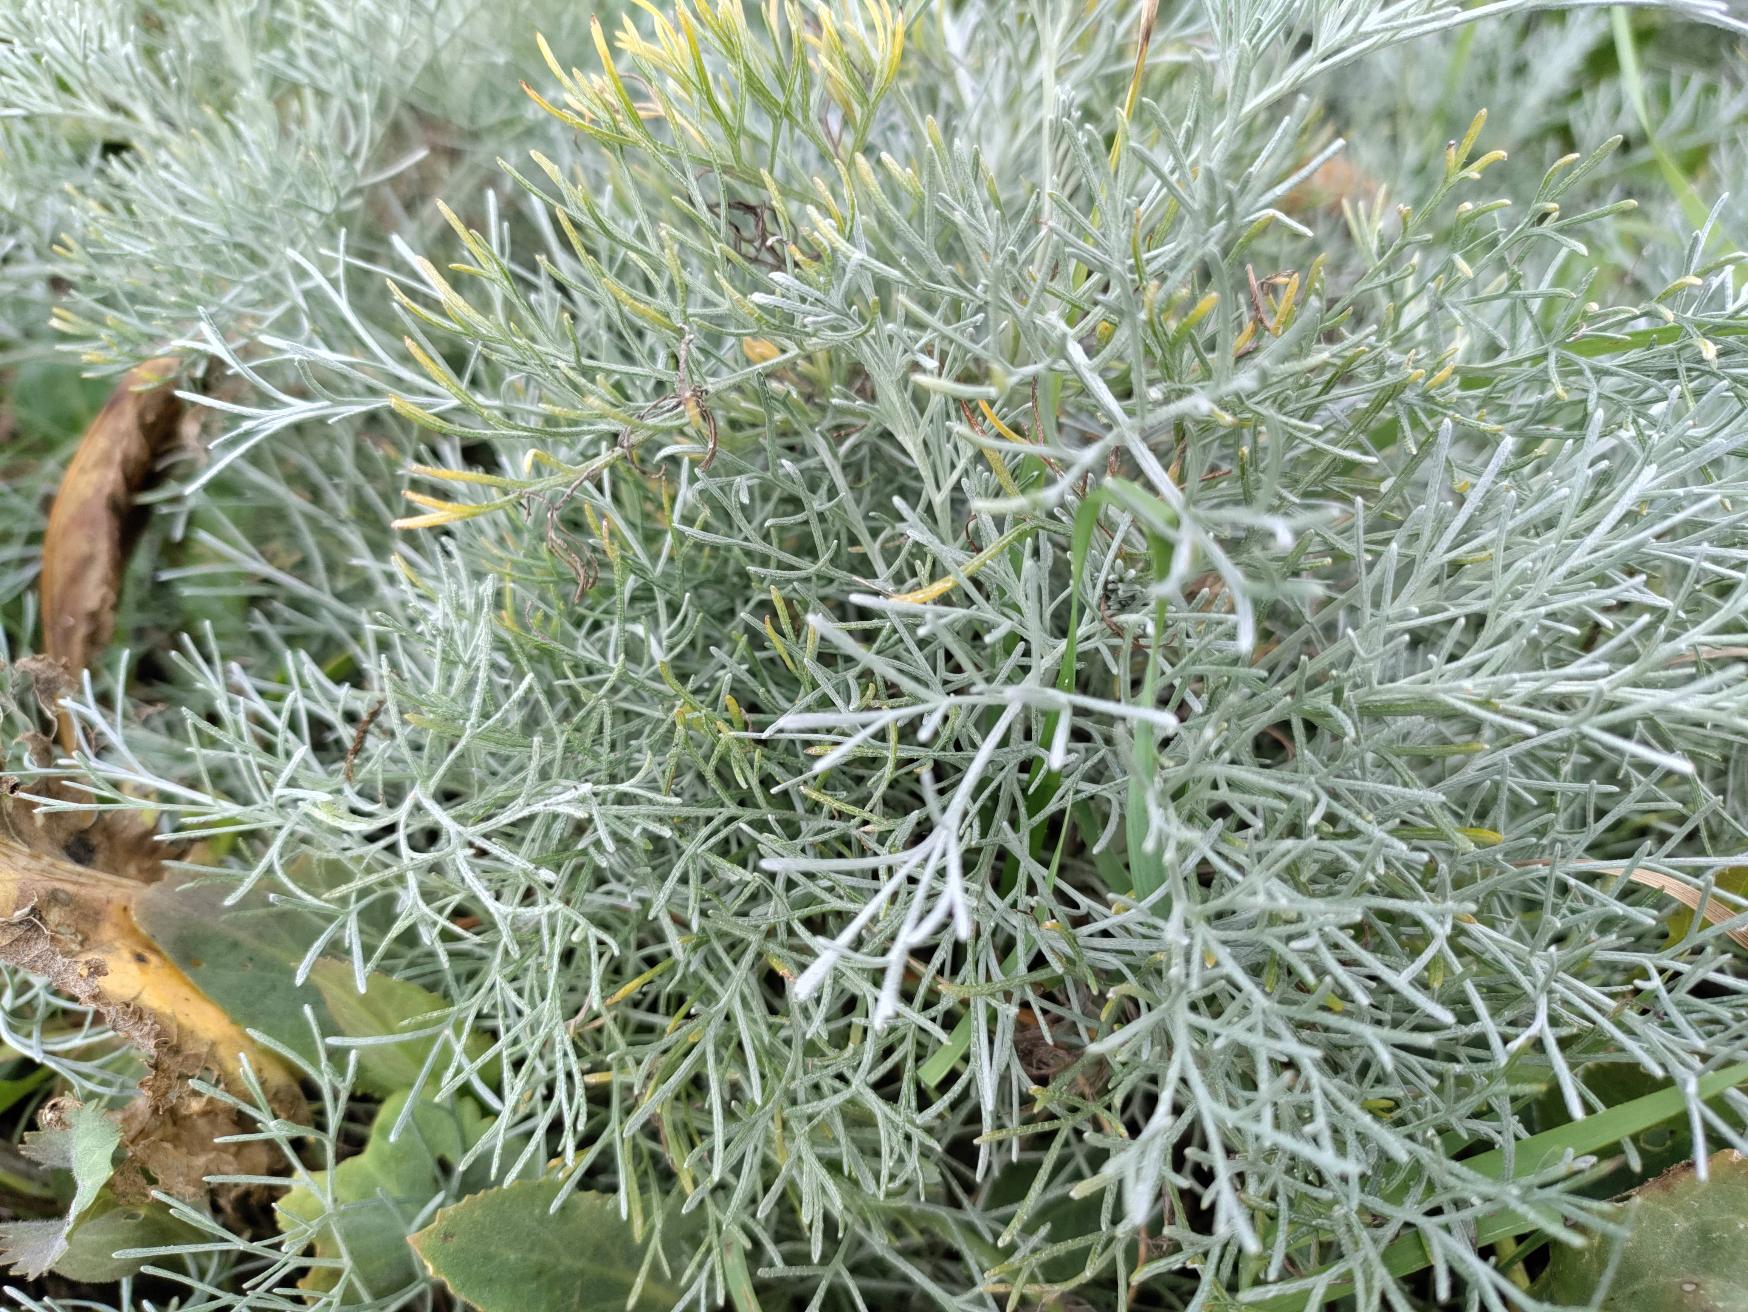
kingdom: Plantae
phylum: Tracheophyta
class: Magnoliopsida
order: Asterales
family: Asteraceae
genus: Artemisia
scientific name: Artemisia maritima
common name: Strandmalurt
